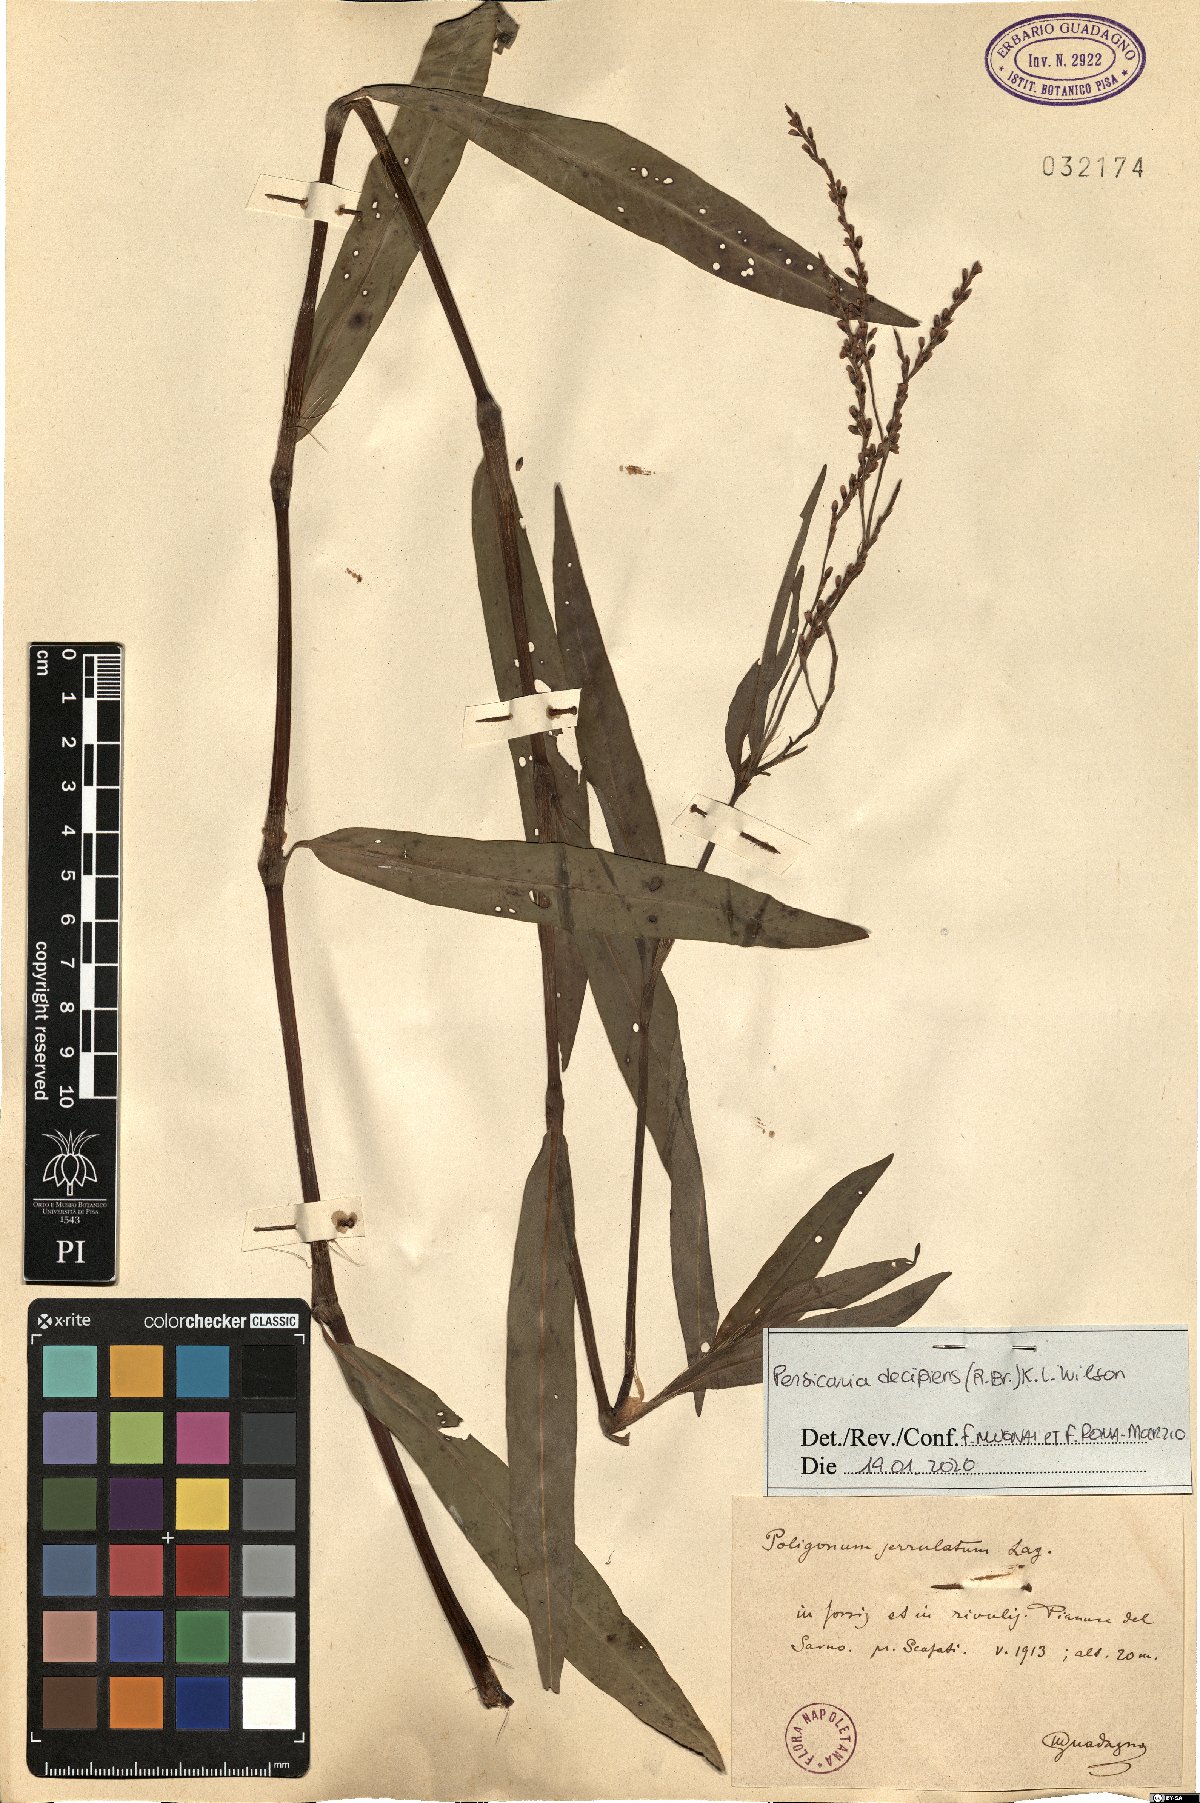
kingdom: Plantae
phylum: Tracheophyta
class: Magnoliopsida
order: Caryophyllales
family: Polygonaceae
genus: Persicaria
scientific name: Persicaria decipiens
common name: Willow-weed
